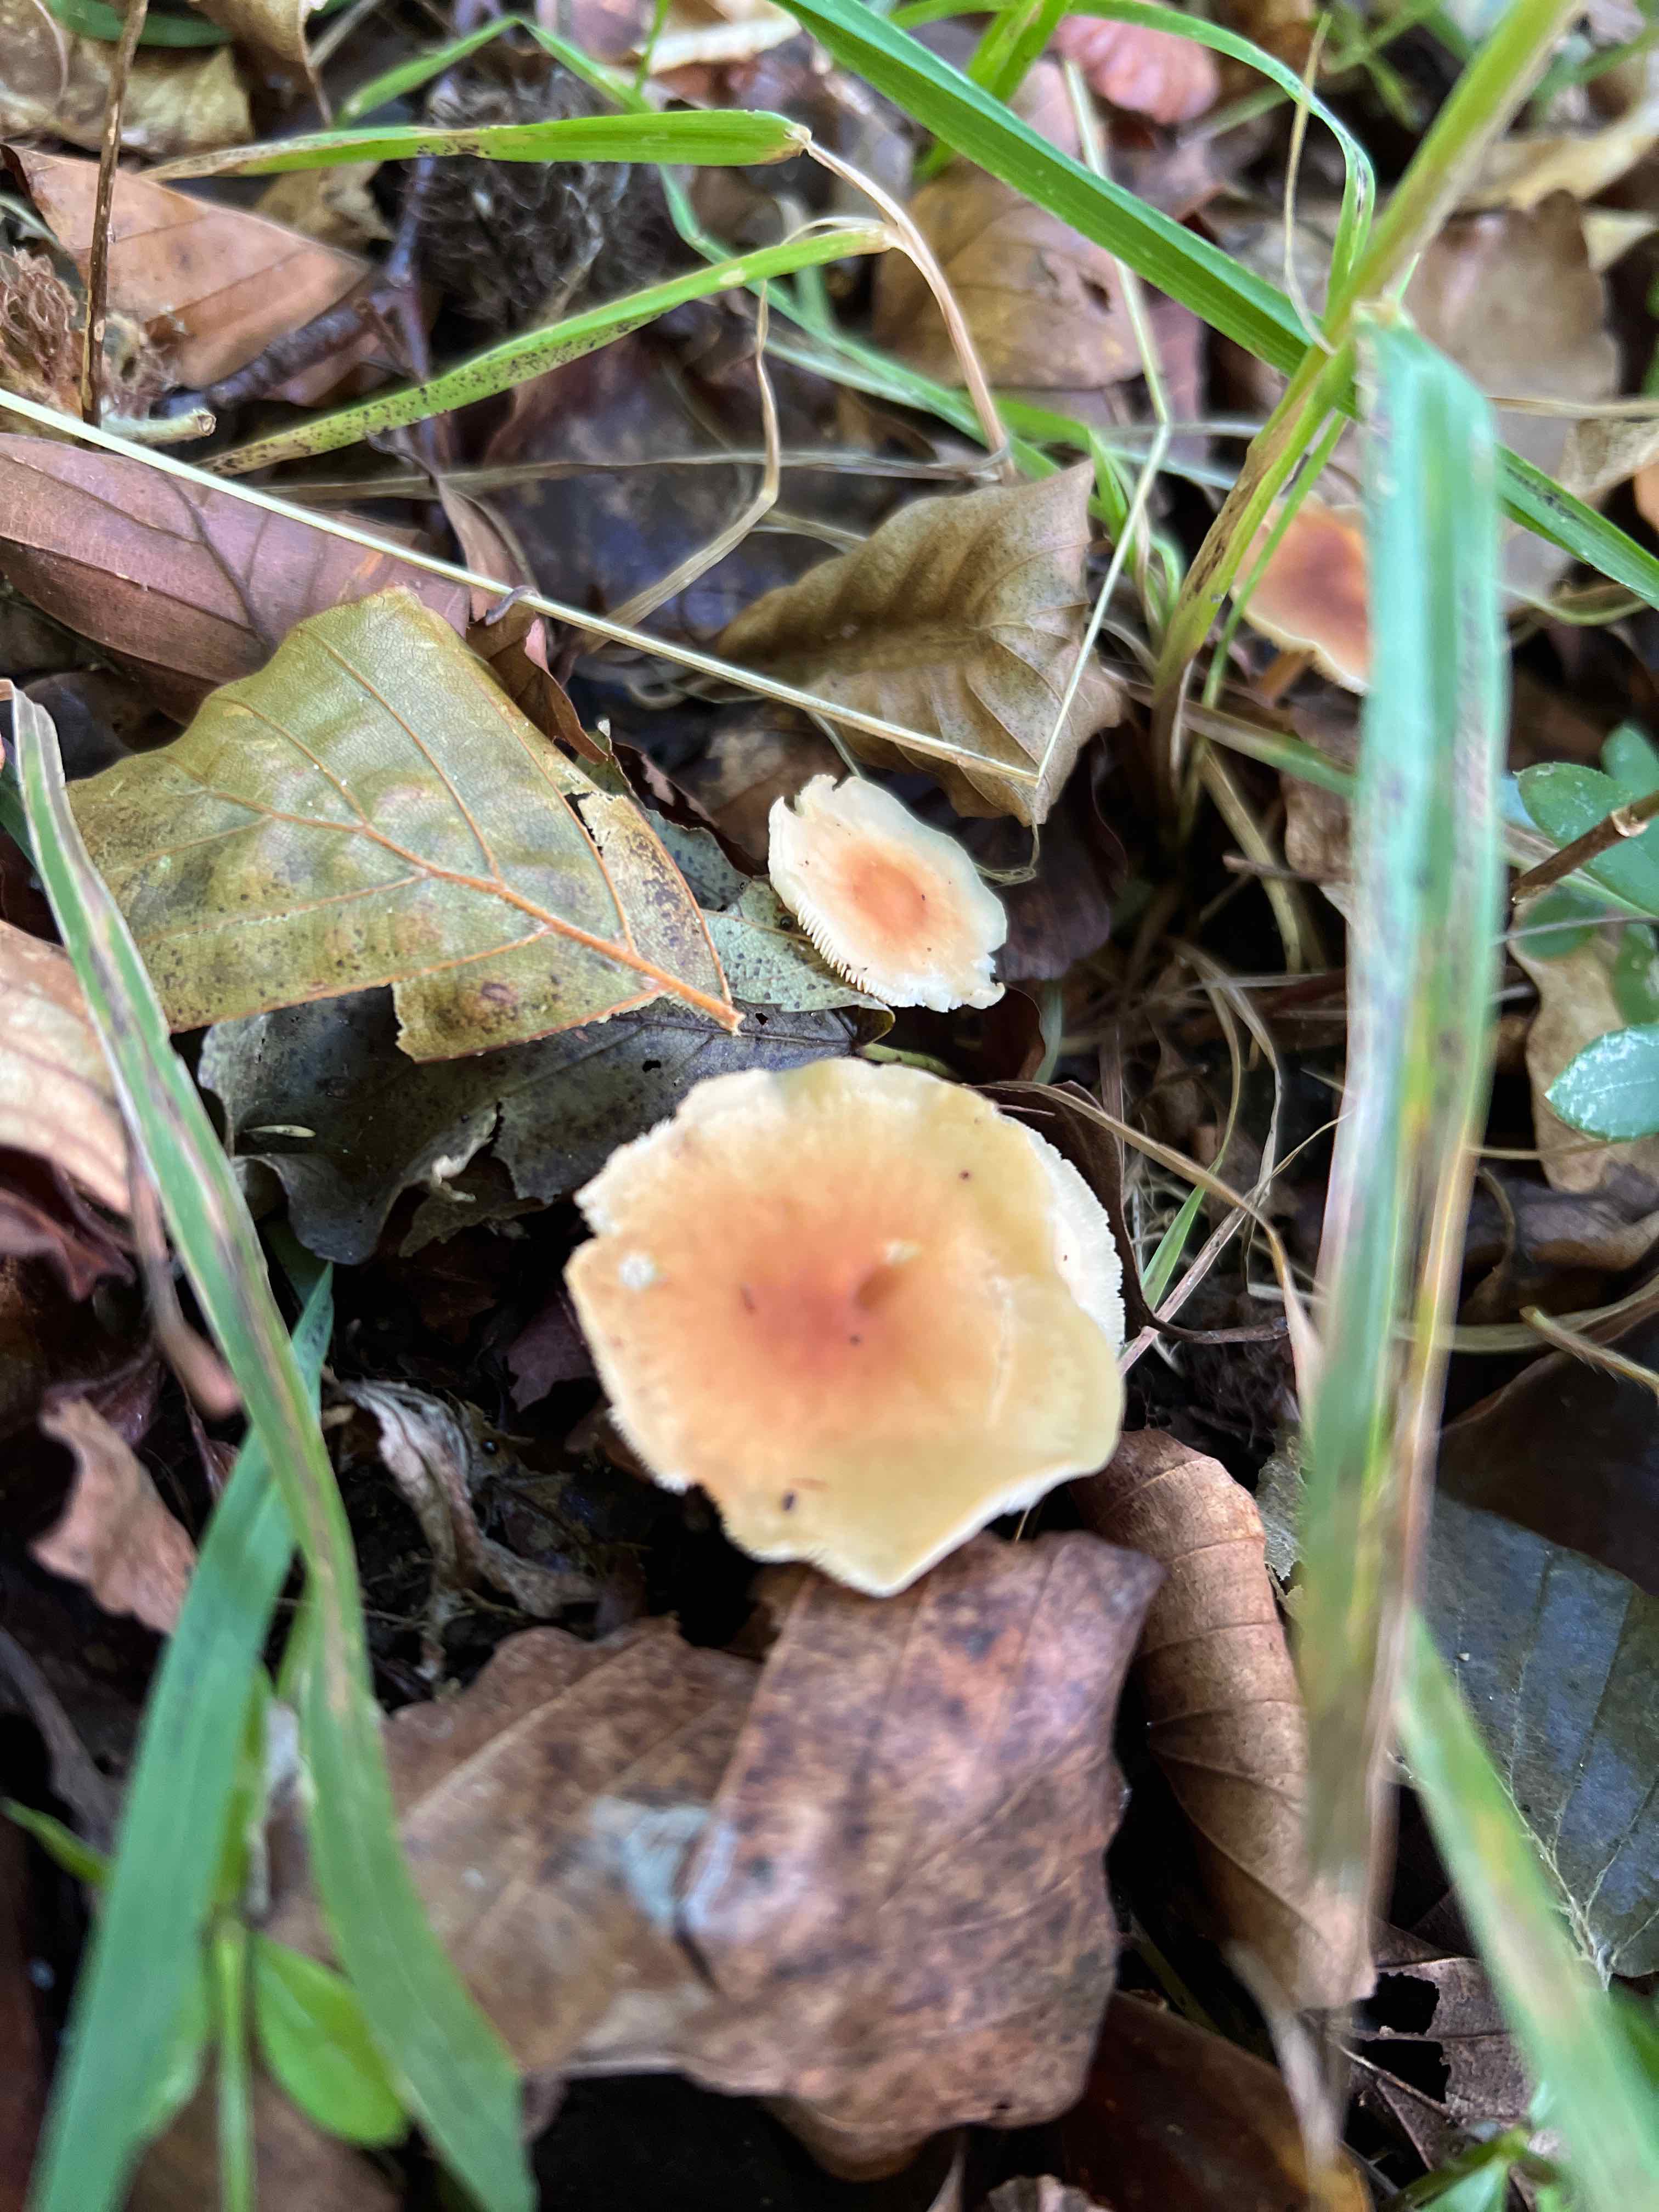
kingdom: Fungi
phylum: Basidiomycota
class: Agaricomycetes
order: Agaricales
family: Omphalotaceae
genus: Gymnopus
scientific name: Gymnopus dryophilus
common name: løv-fladhat
